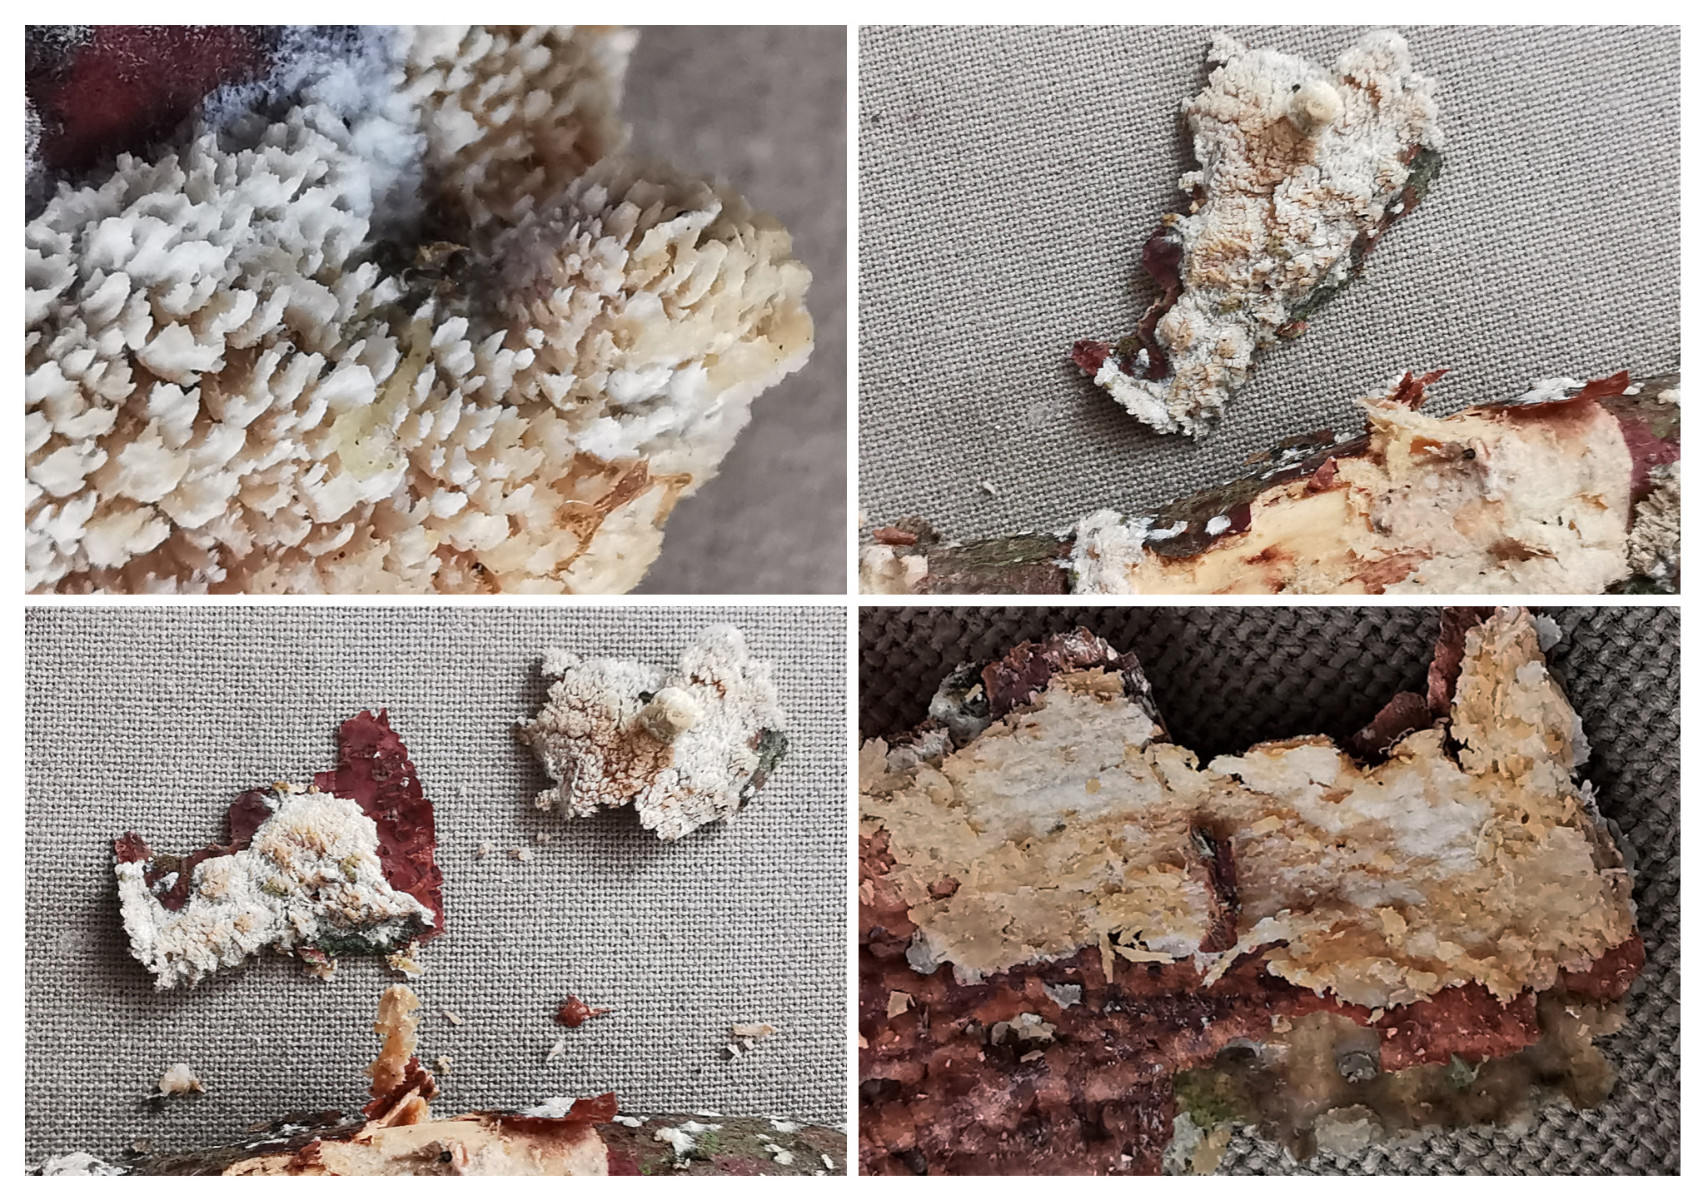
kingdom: Fungi
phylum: Basidiomycota
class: Agaricomycetes
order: Corticiales
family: Corticiaceae
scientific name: Corticiaceae
